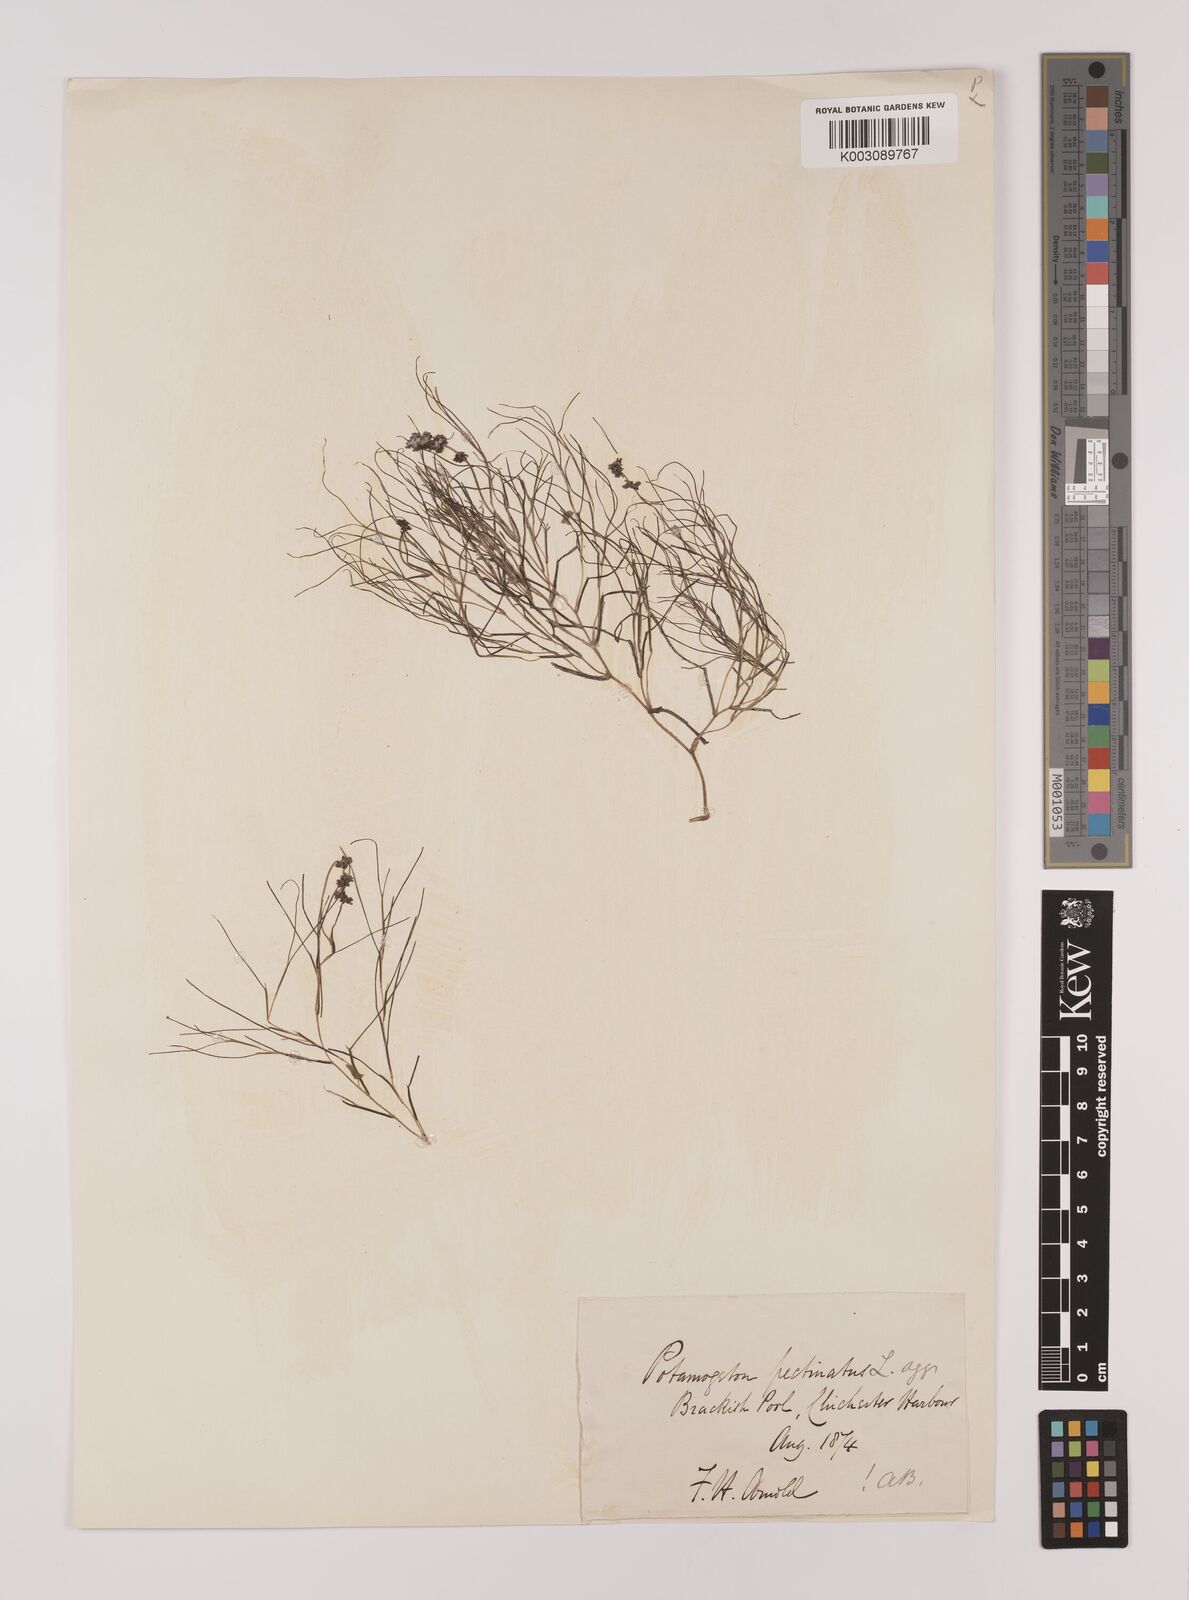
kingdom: Plantae
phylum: Tracheophyta
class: Liliopsida
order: Alismatales
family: Potamogetonaceae
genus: Stuckenia
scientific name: Stuckenia pectinata
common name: Sago pondweed
